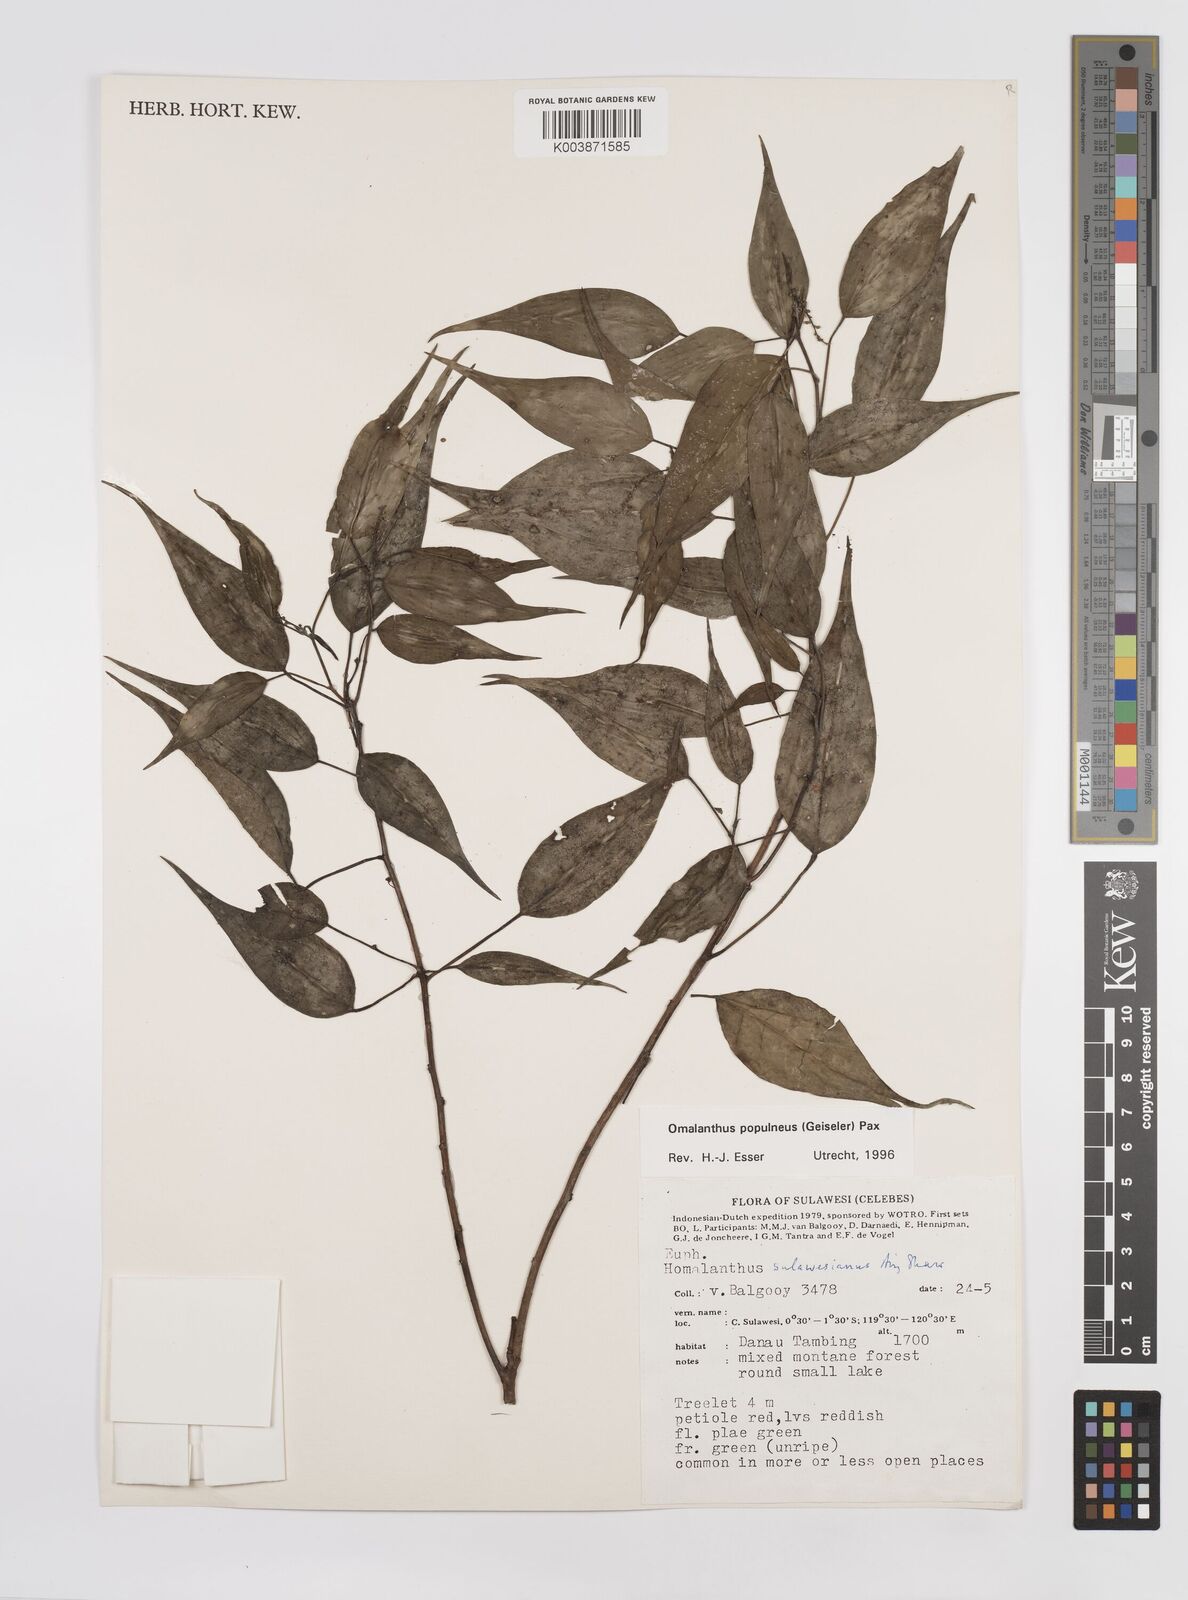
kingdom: Plantae
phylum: Tracheophyta
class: Magnoliopsida
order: Malpighiales
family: Euphorbiaceae
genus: Homalanthus
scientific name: Homalanthus populneus
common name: Spurge
